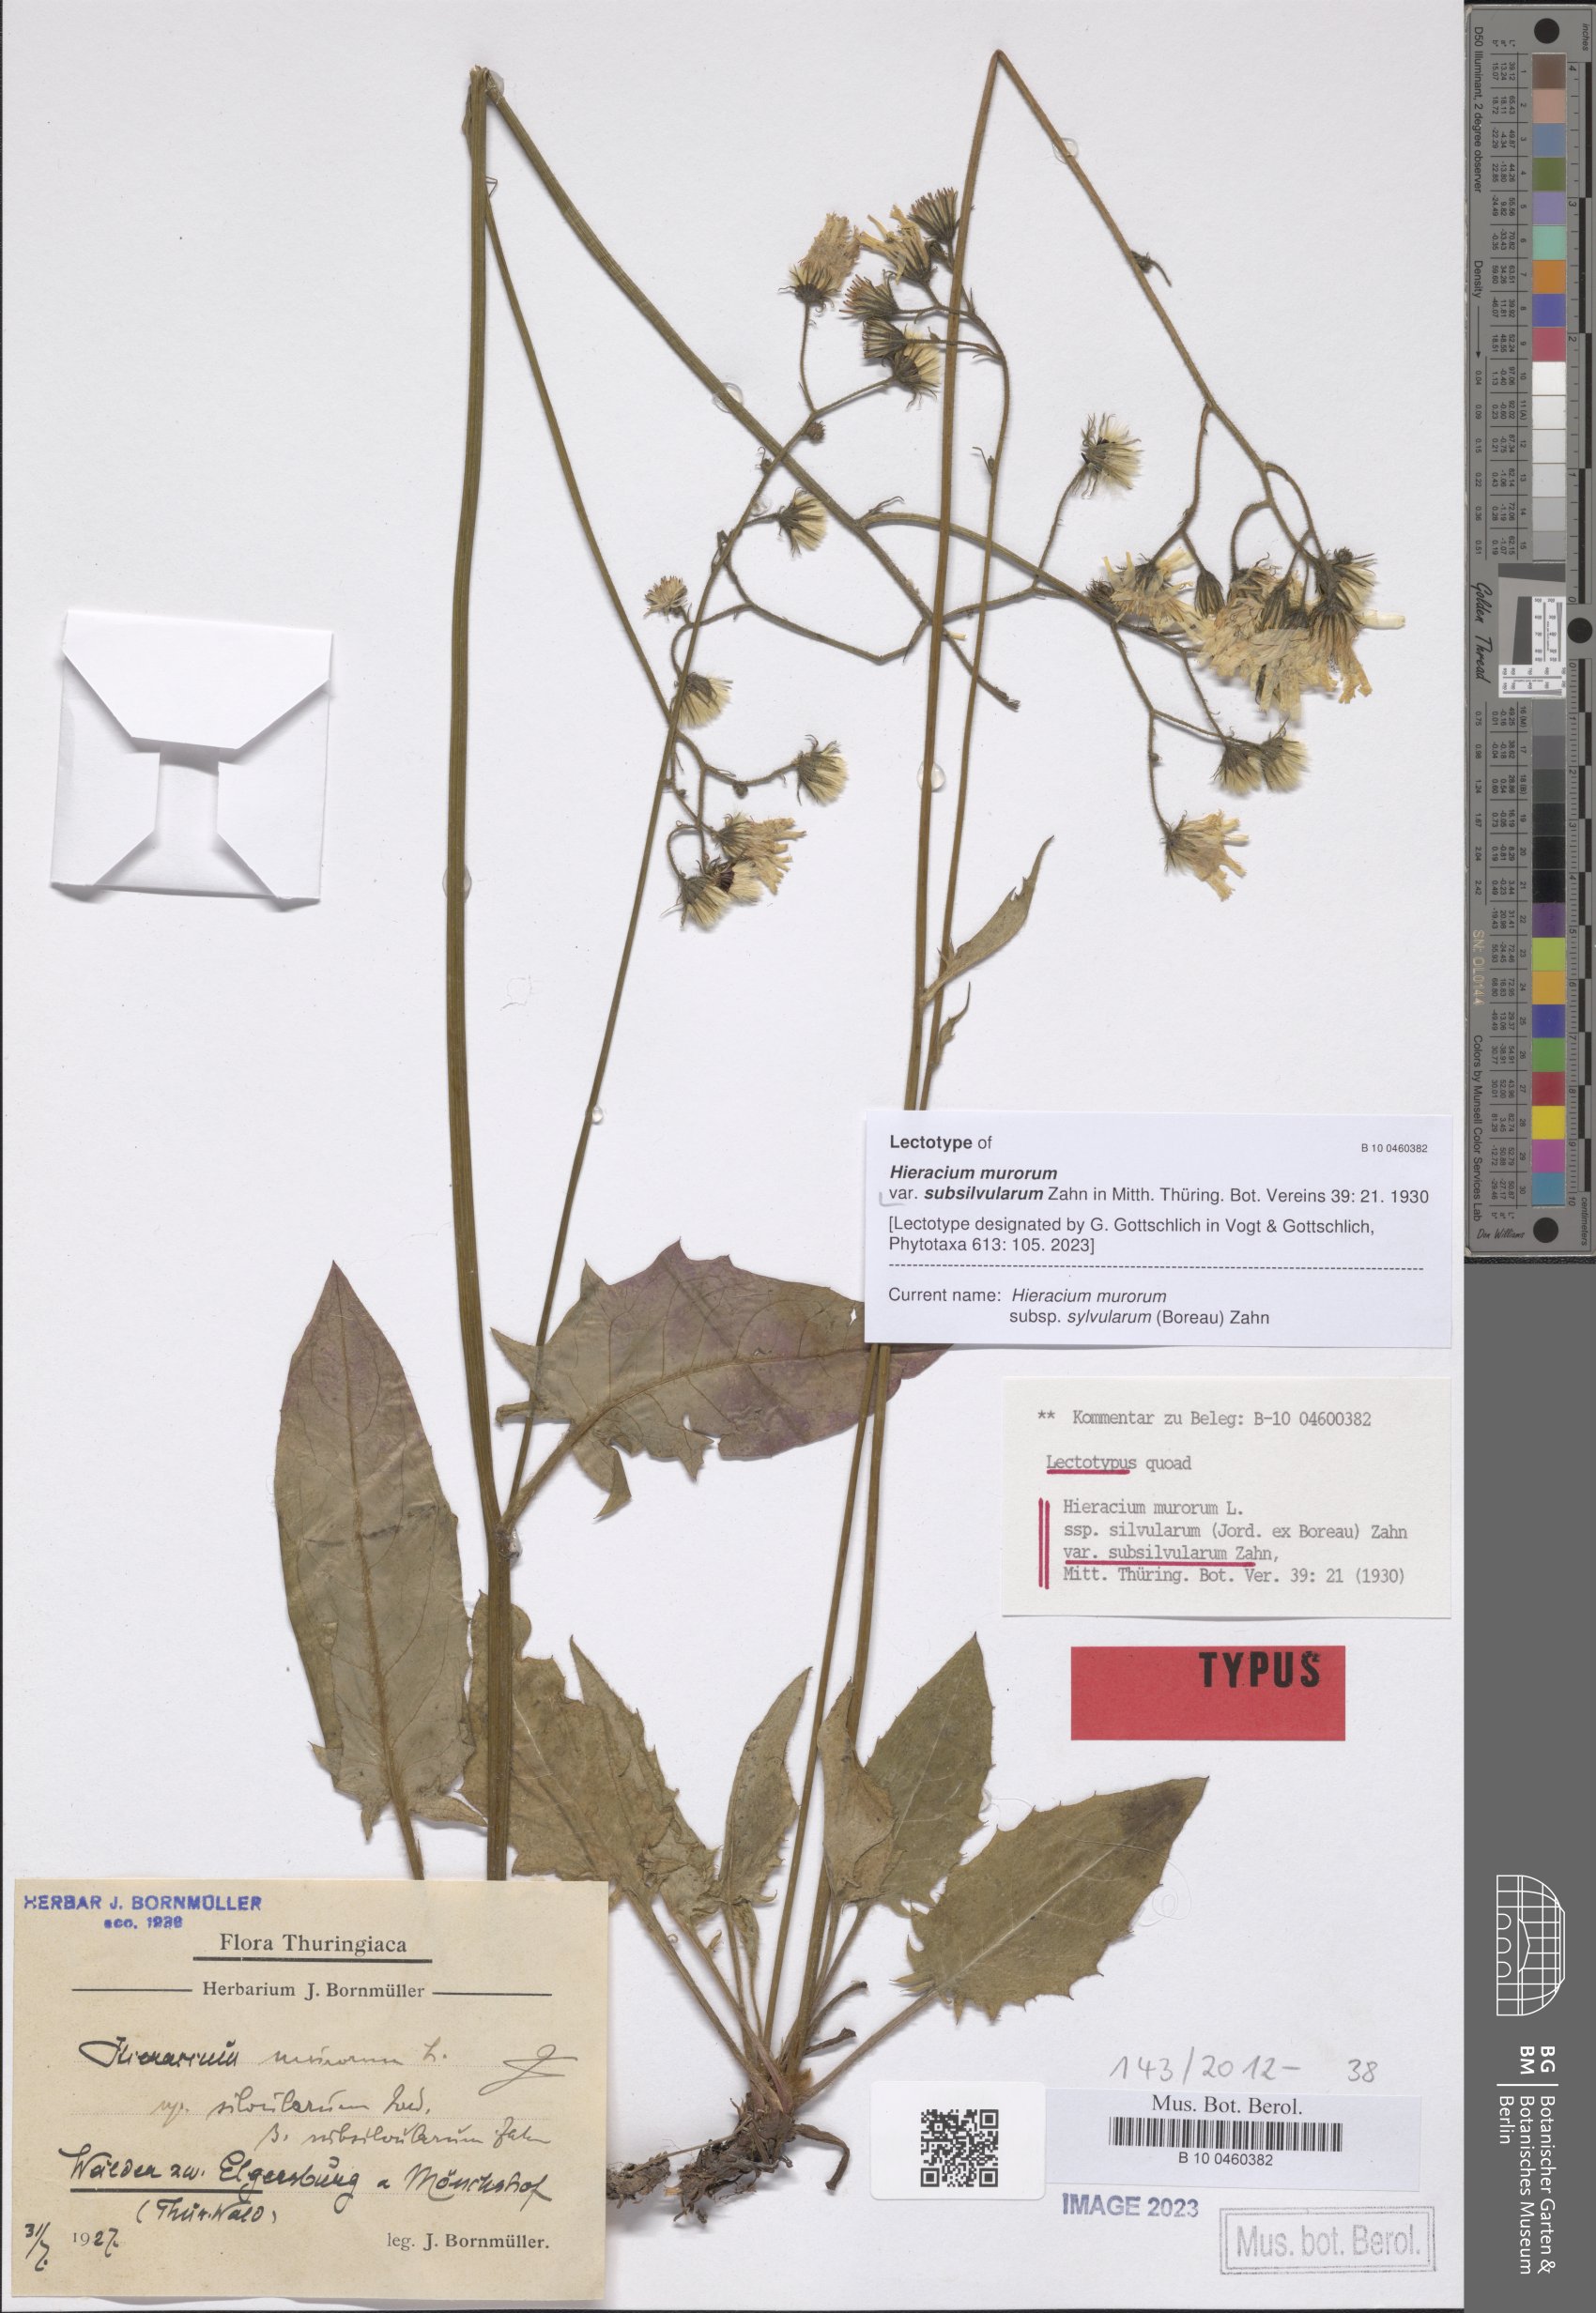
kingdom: Plantae
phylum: Tracheophyta
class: Magnoliopsida
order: Asterales
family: Asteraceae
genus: Hieracium
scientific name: Hieracium murorum
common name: Wall hawkweed
